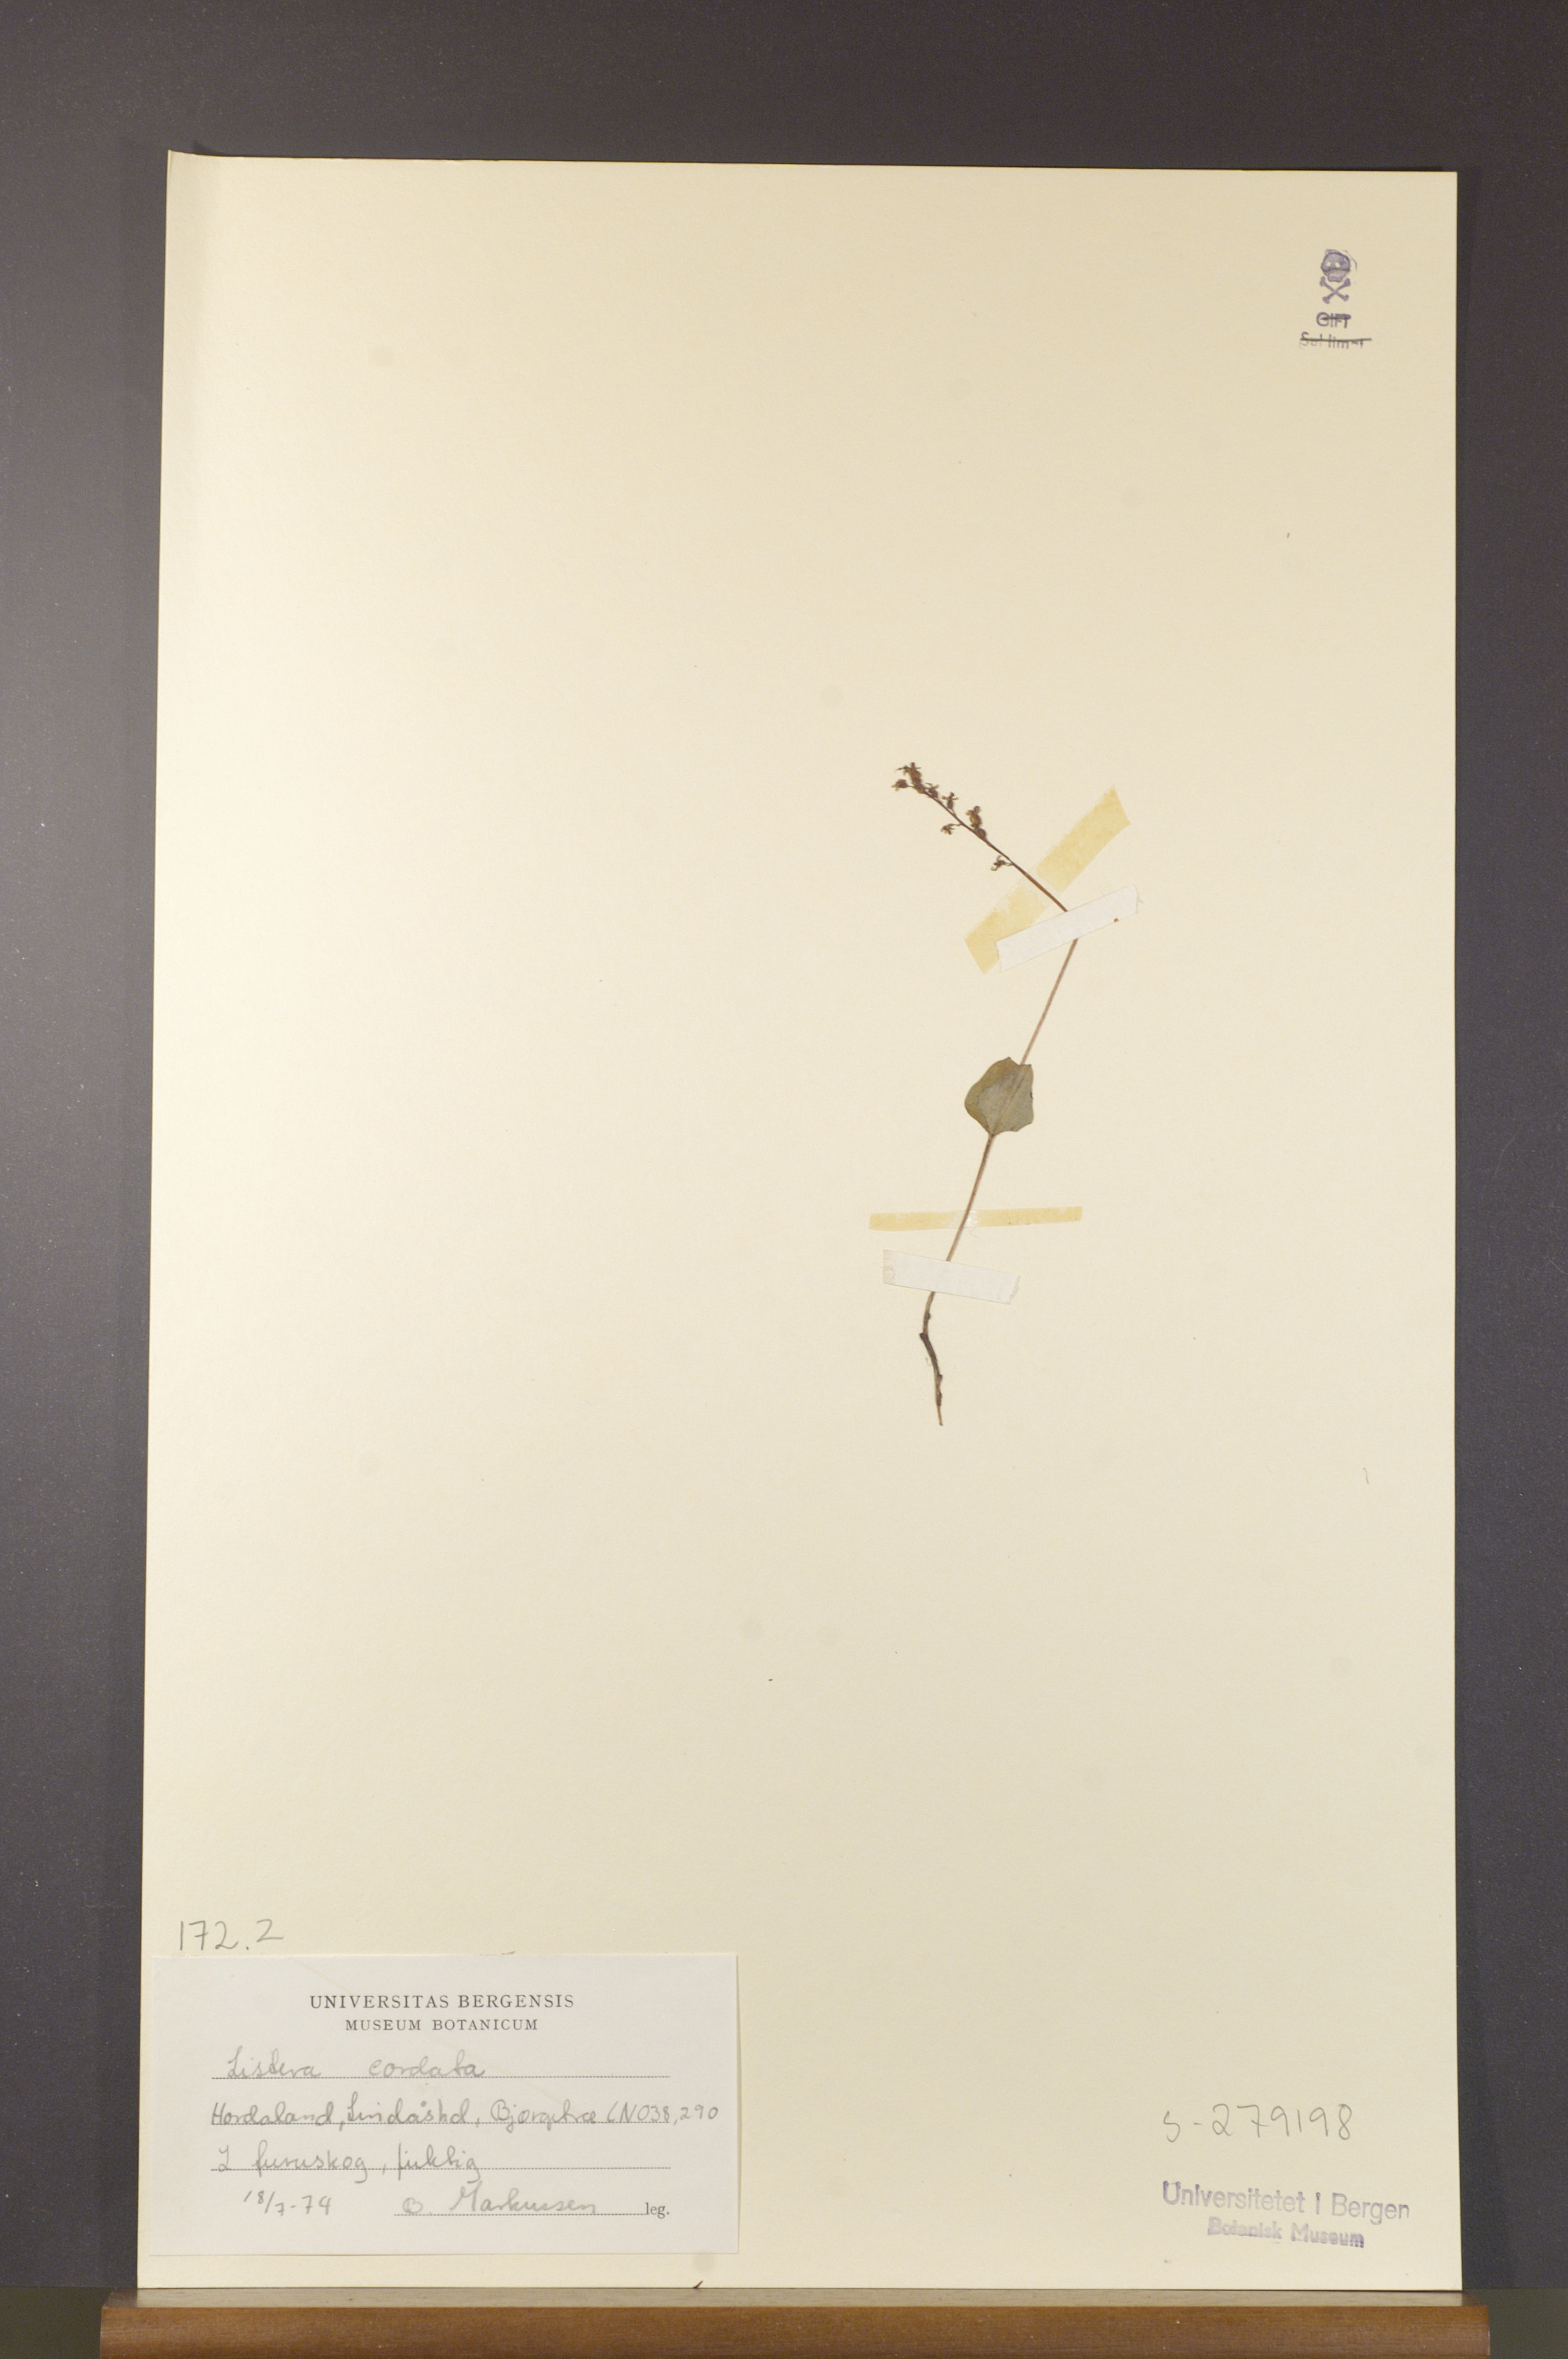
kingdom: Plantae
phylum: Tracheophyta
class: Liliopsida
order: Asparagales
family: Orchidaceae
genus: Neottia
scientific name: Neottia cordata
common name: Lesser twayblade
